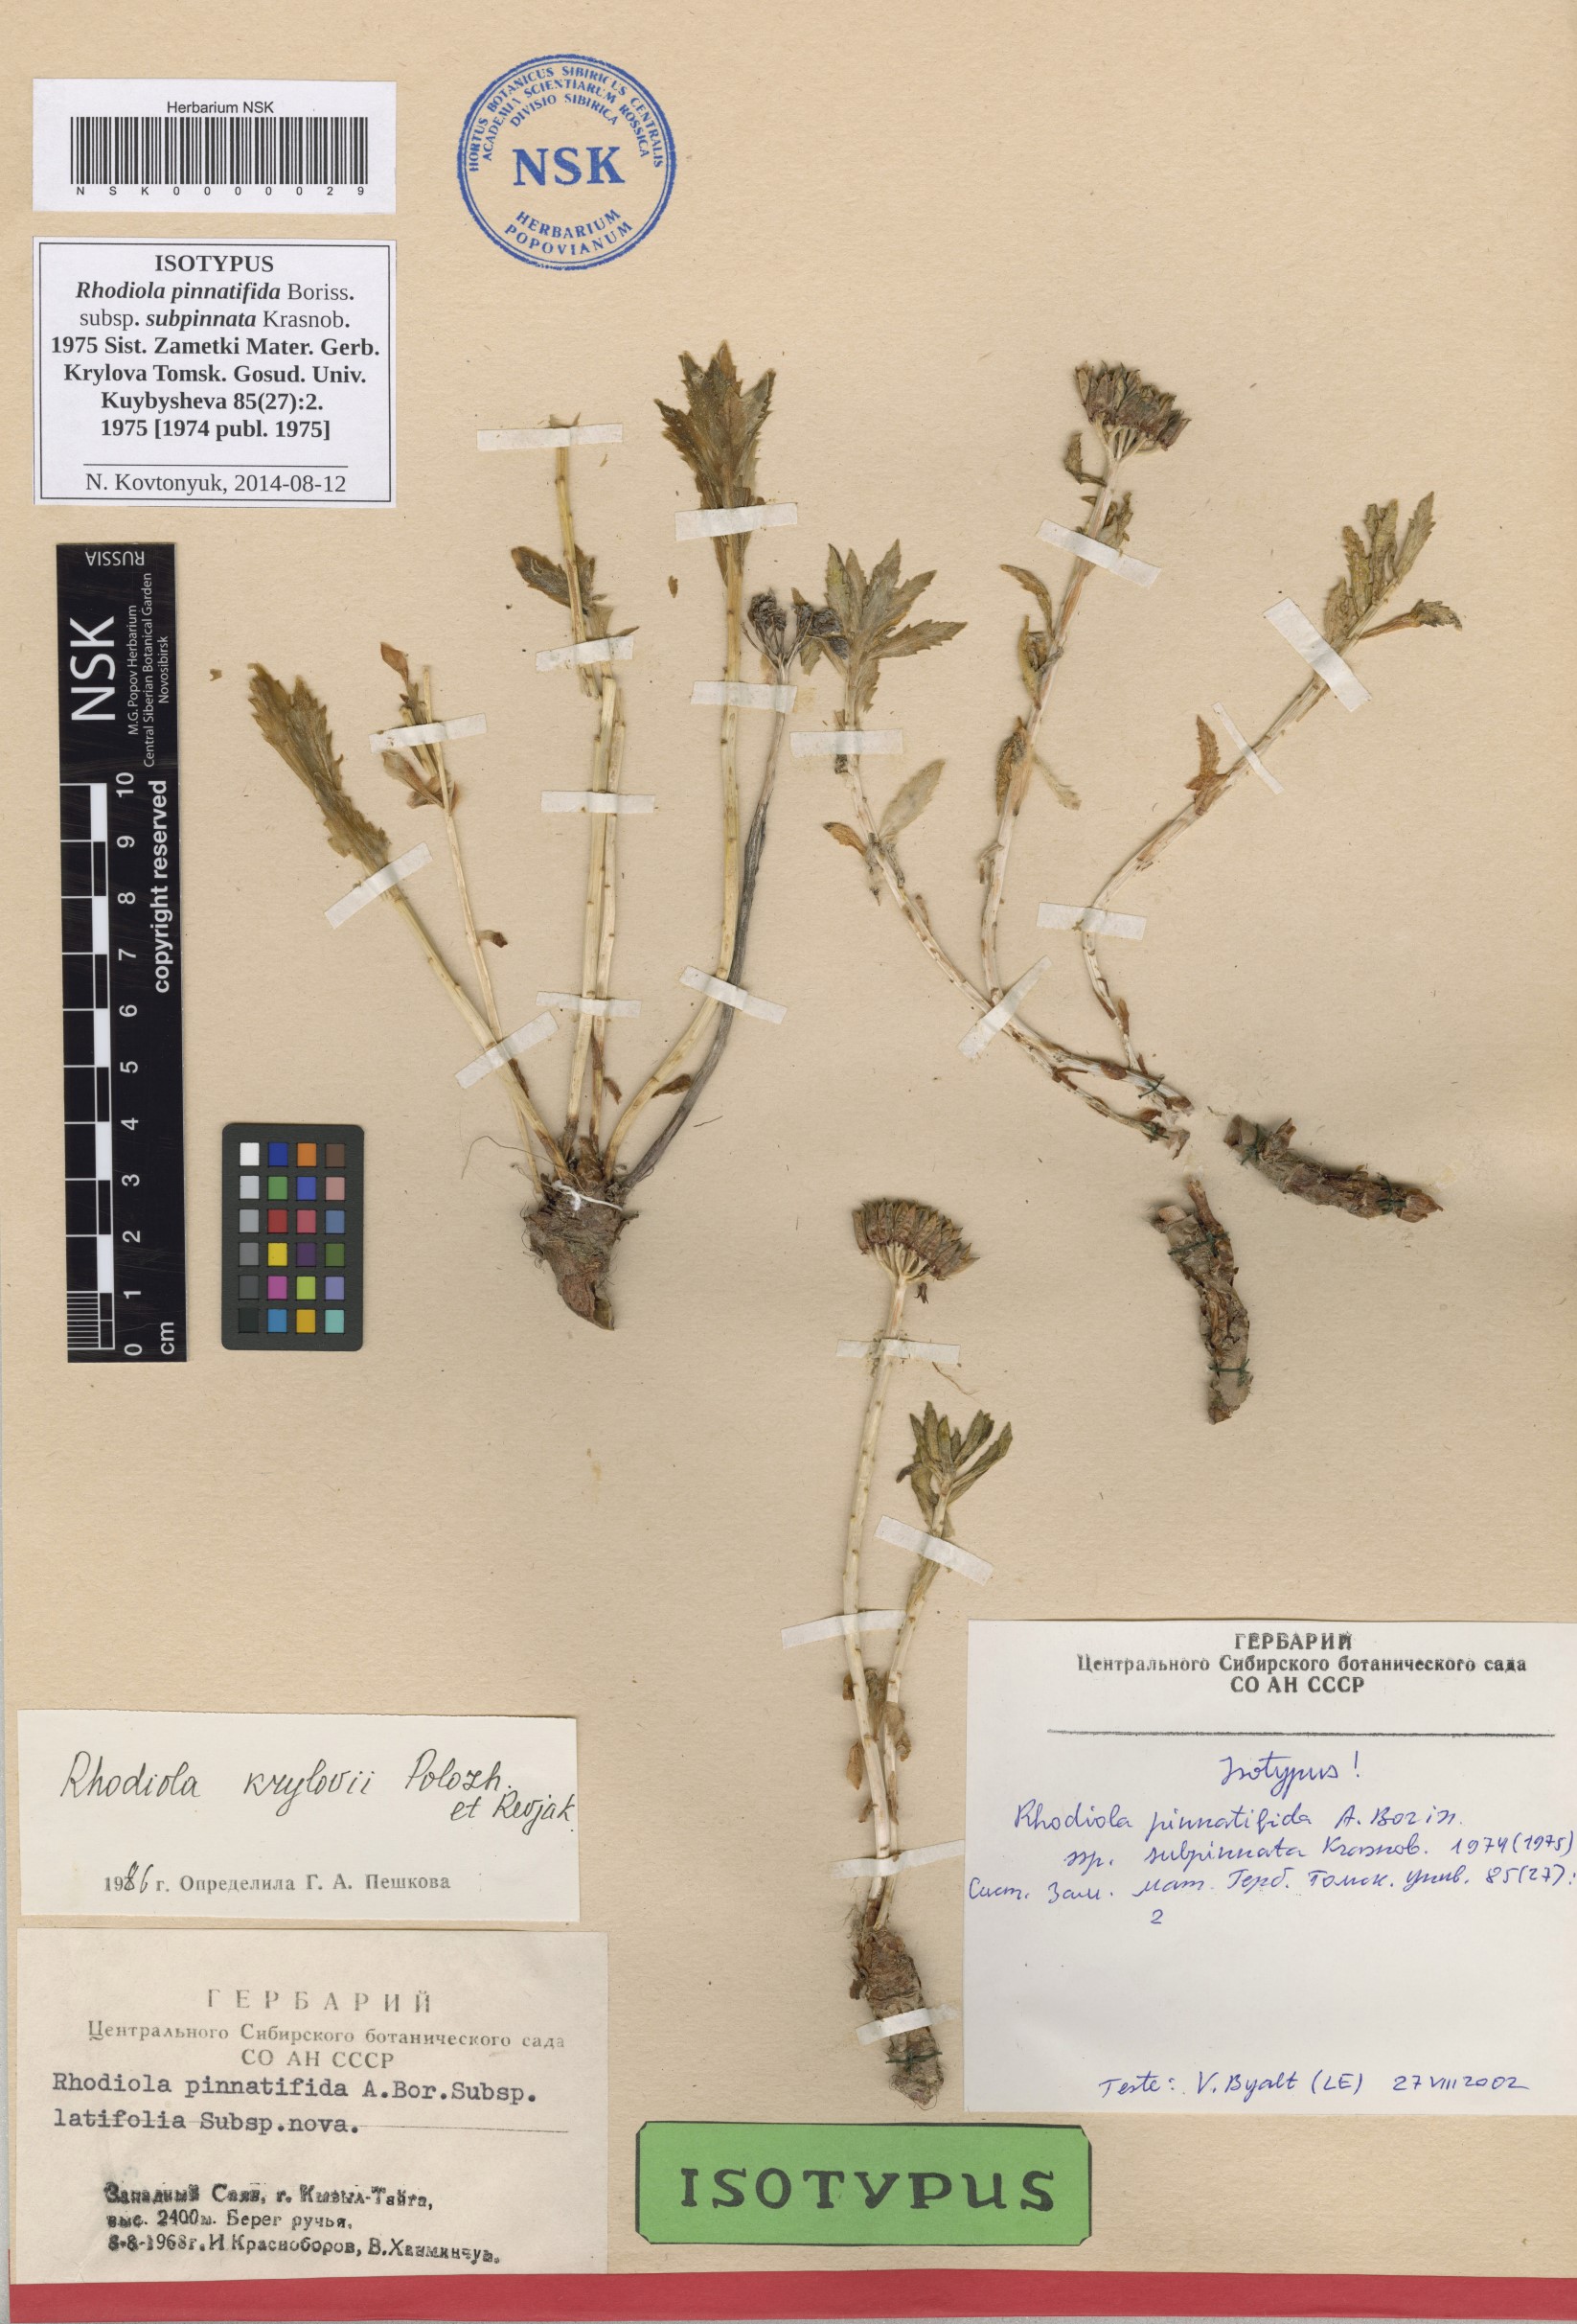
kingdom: Plantae
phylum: Tracheophyta
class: Magnoliopsida
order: Saxifragales
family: Crassulaceae
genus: Rhodiola
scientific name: Rhodiola stephani
